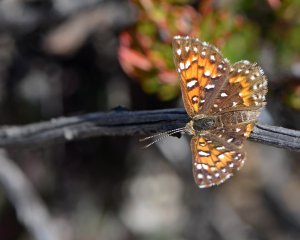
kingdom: Animalia
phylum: Arthropoda
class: Insecta
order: Lepidoptera
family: Riodinidae
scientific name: Riodinidae
